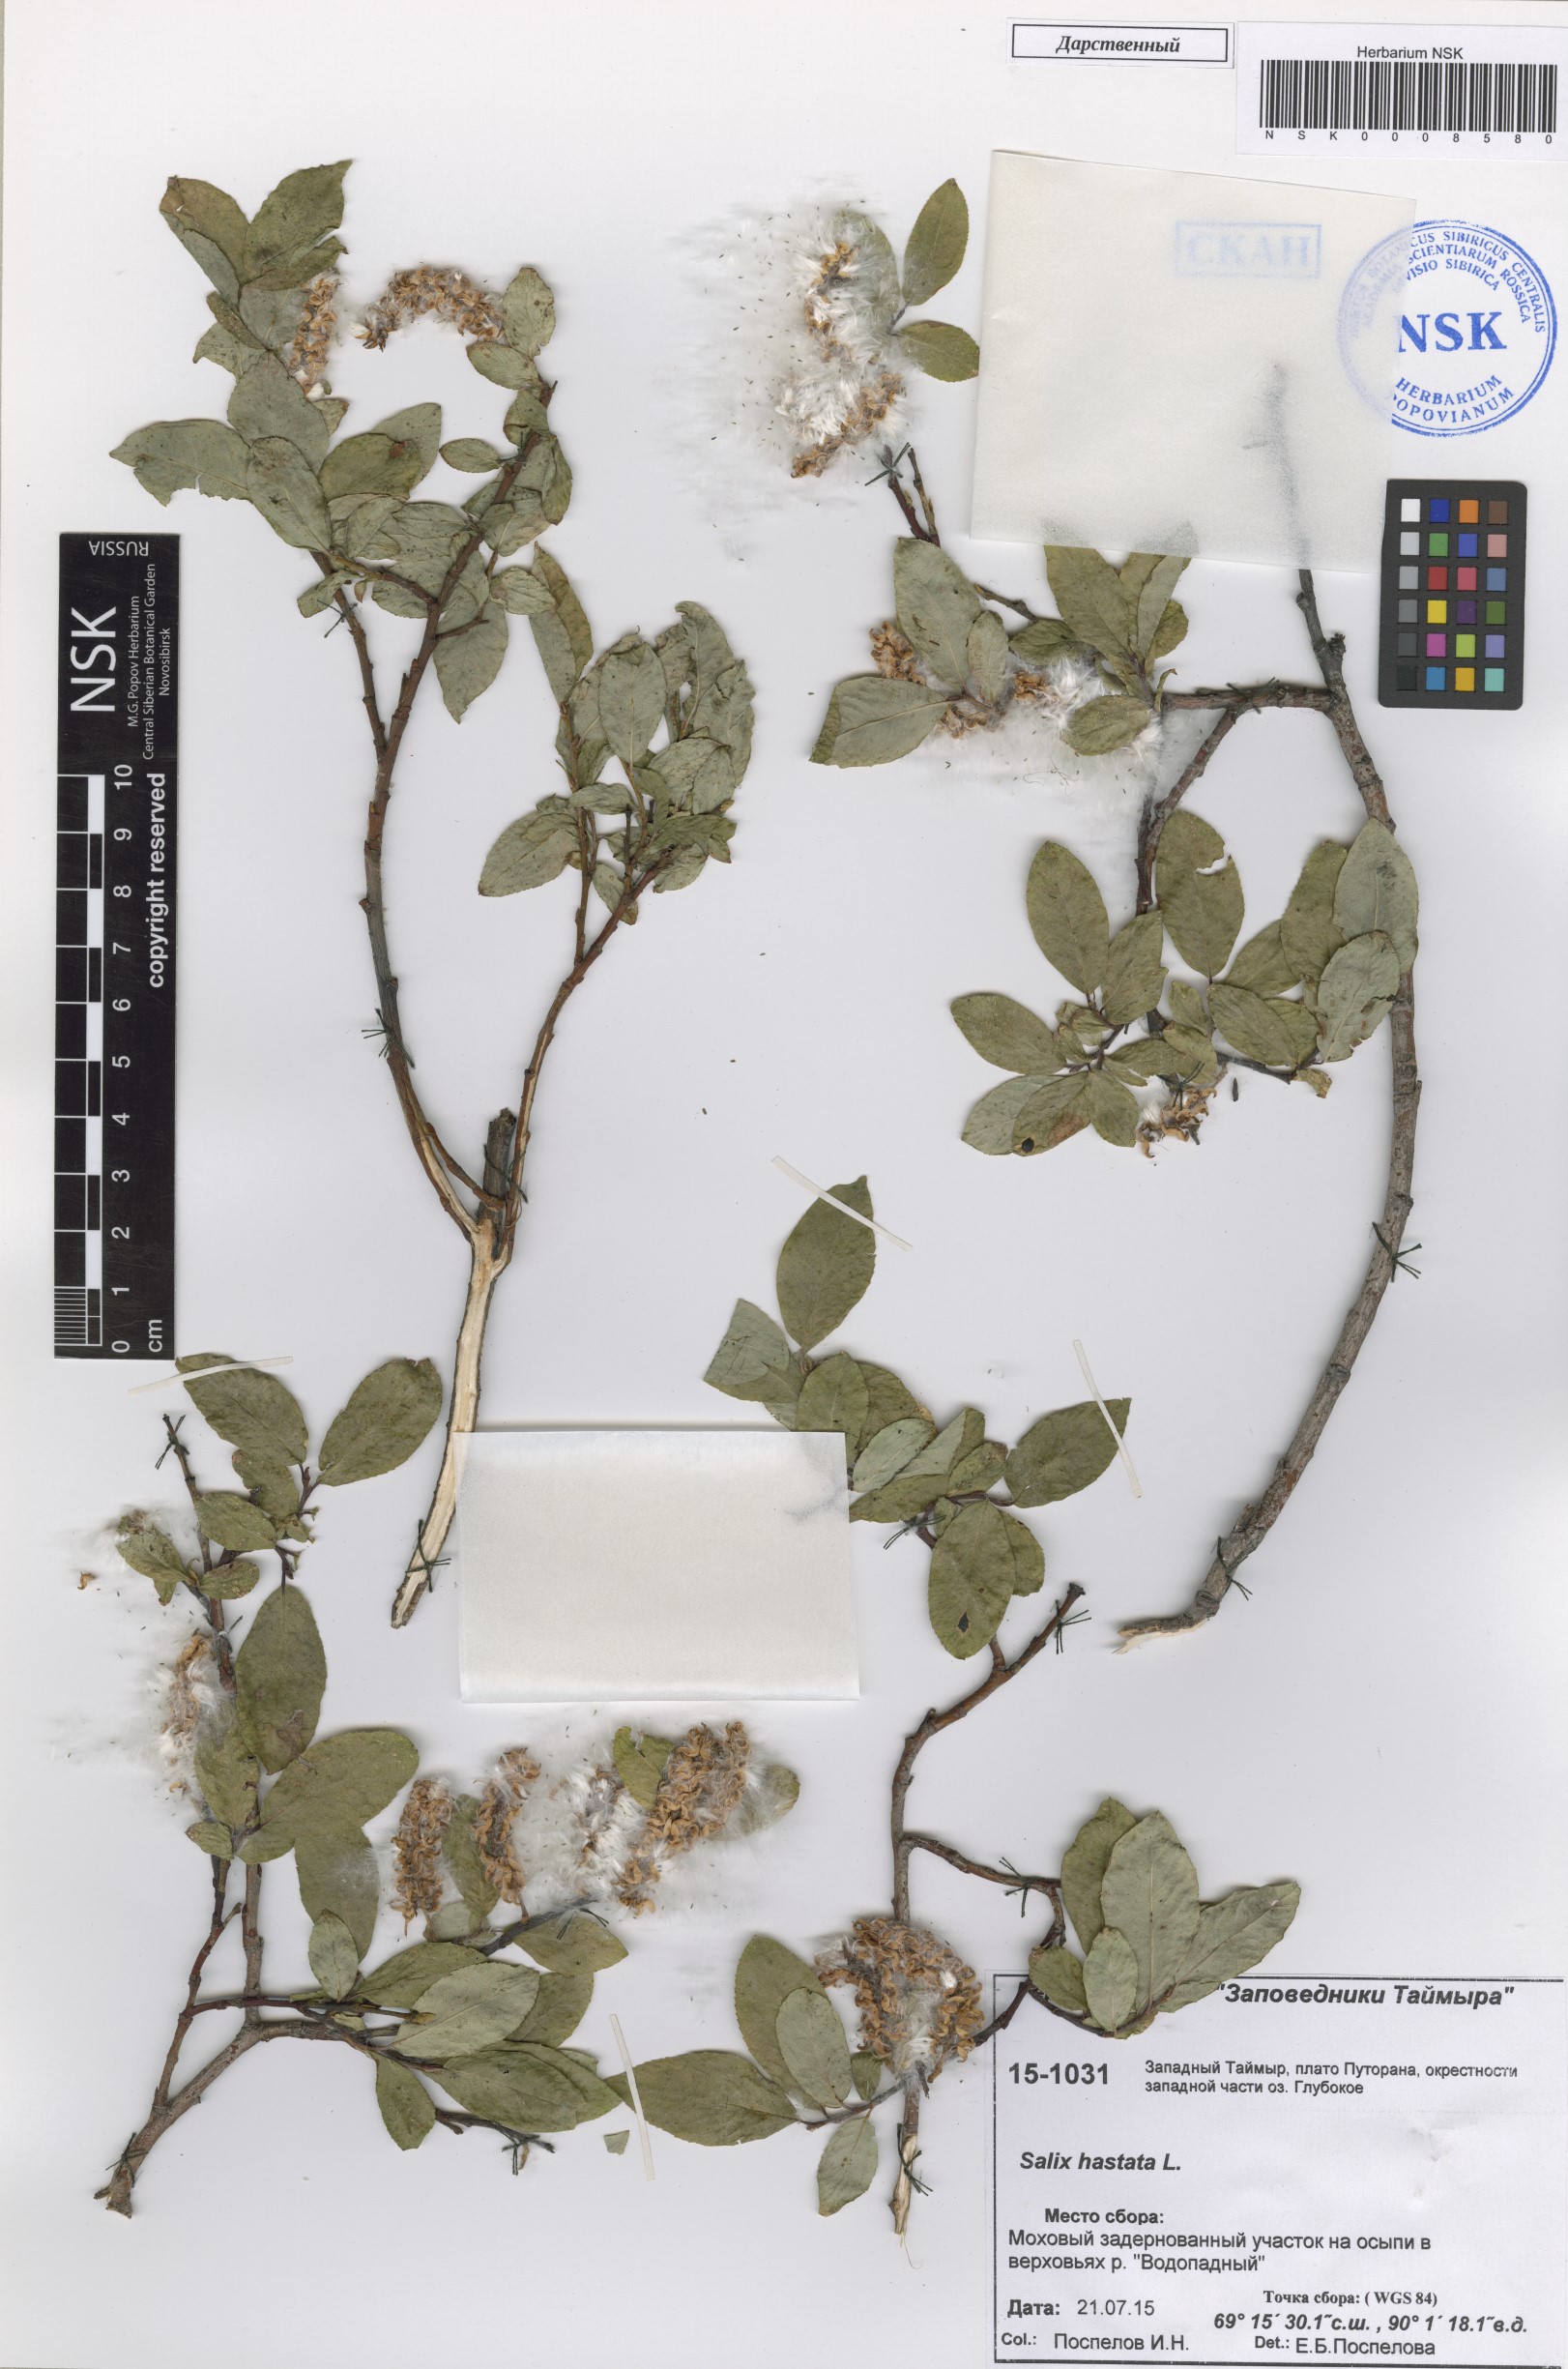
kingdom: Plantae
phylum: Tracheophyta
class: Magnoliopsida
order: Malpighiales
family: Salicaceae
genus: Salix
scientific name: Salix hastata
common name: Halberd willow
